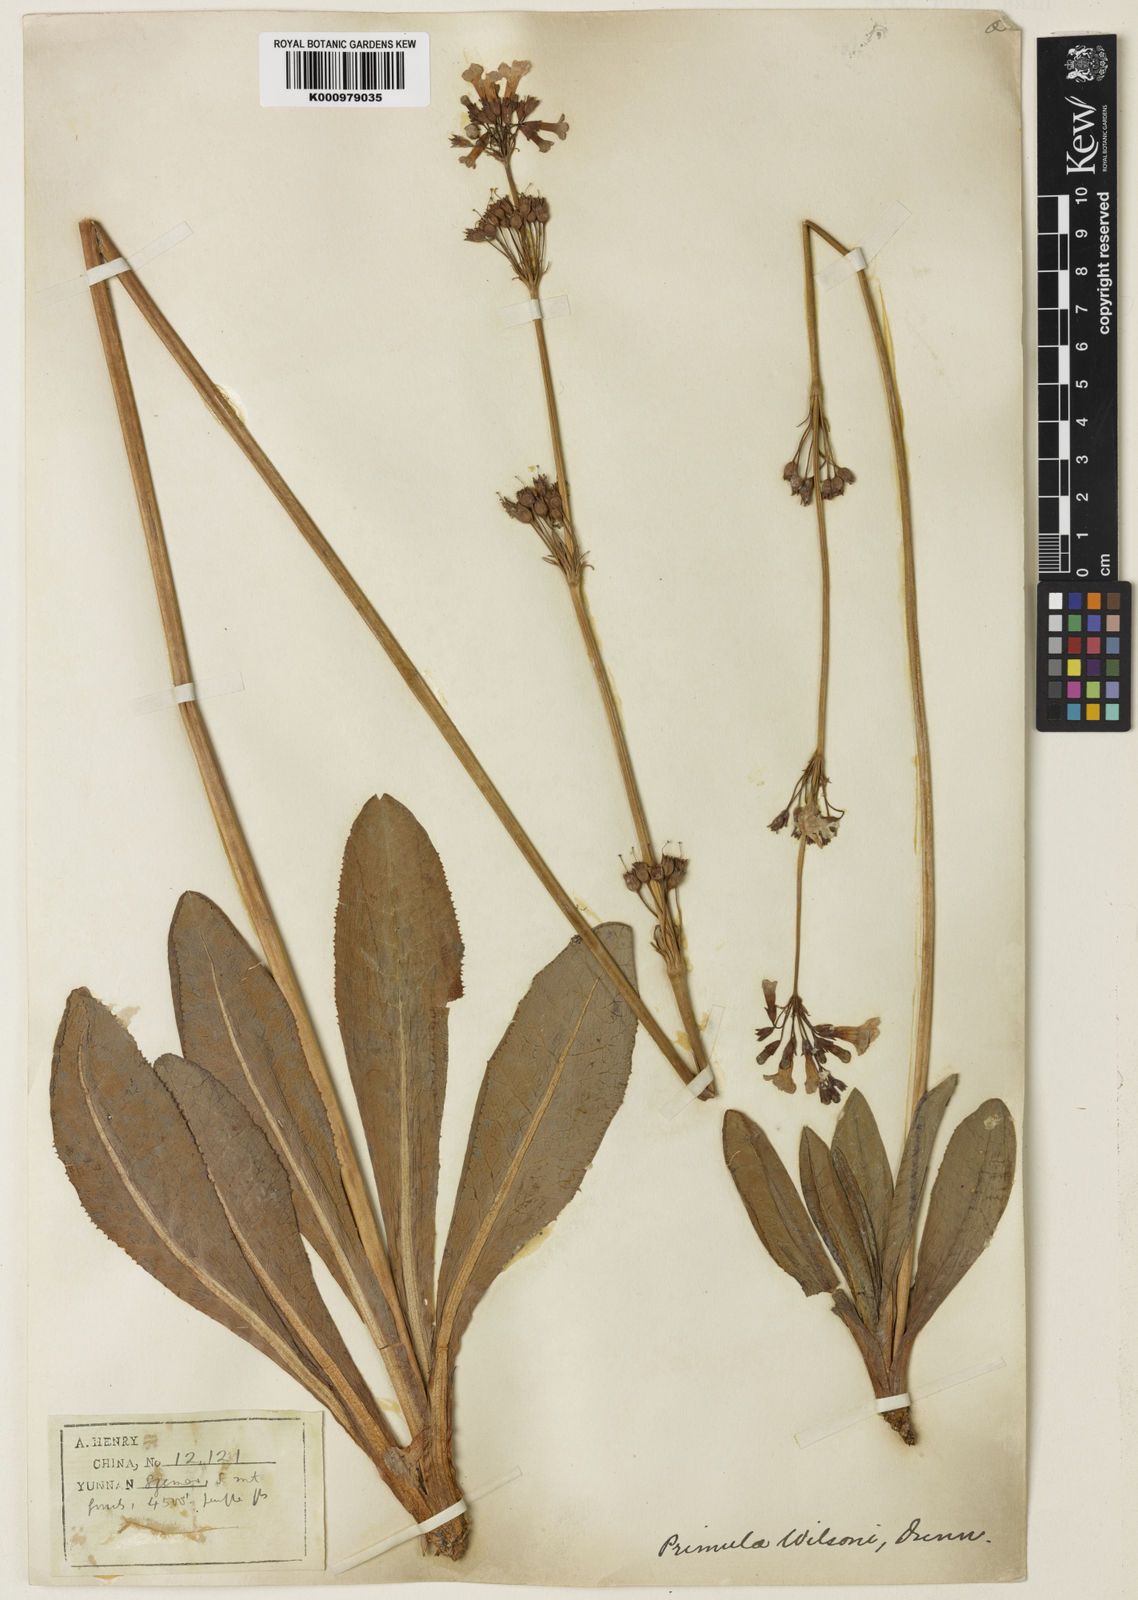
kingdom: Plantae
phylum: Tracheophyta
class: Magnoliopsida
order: Ericales
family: Primulaceae
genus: Primula
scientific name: Primula wilsonii
